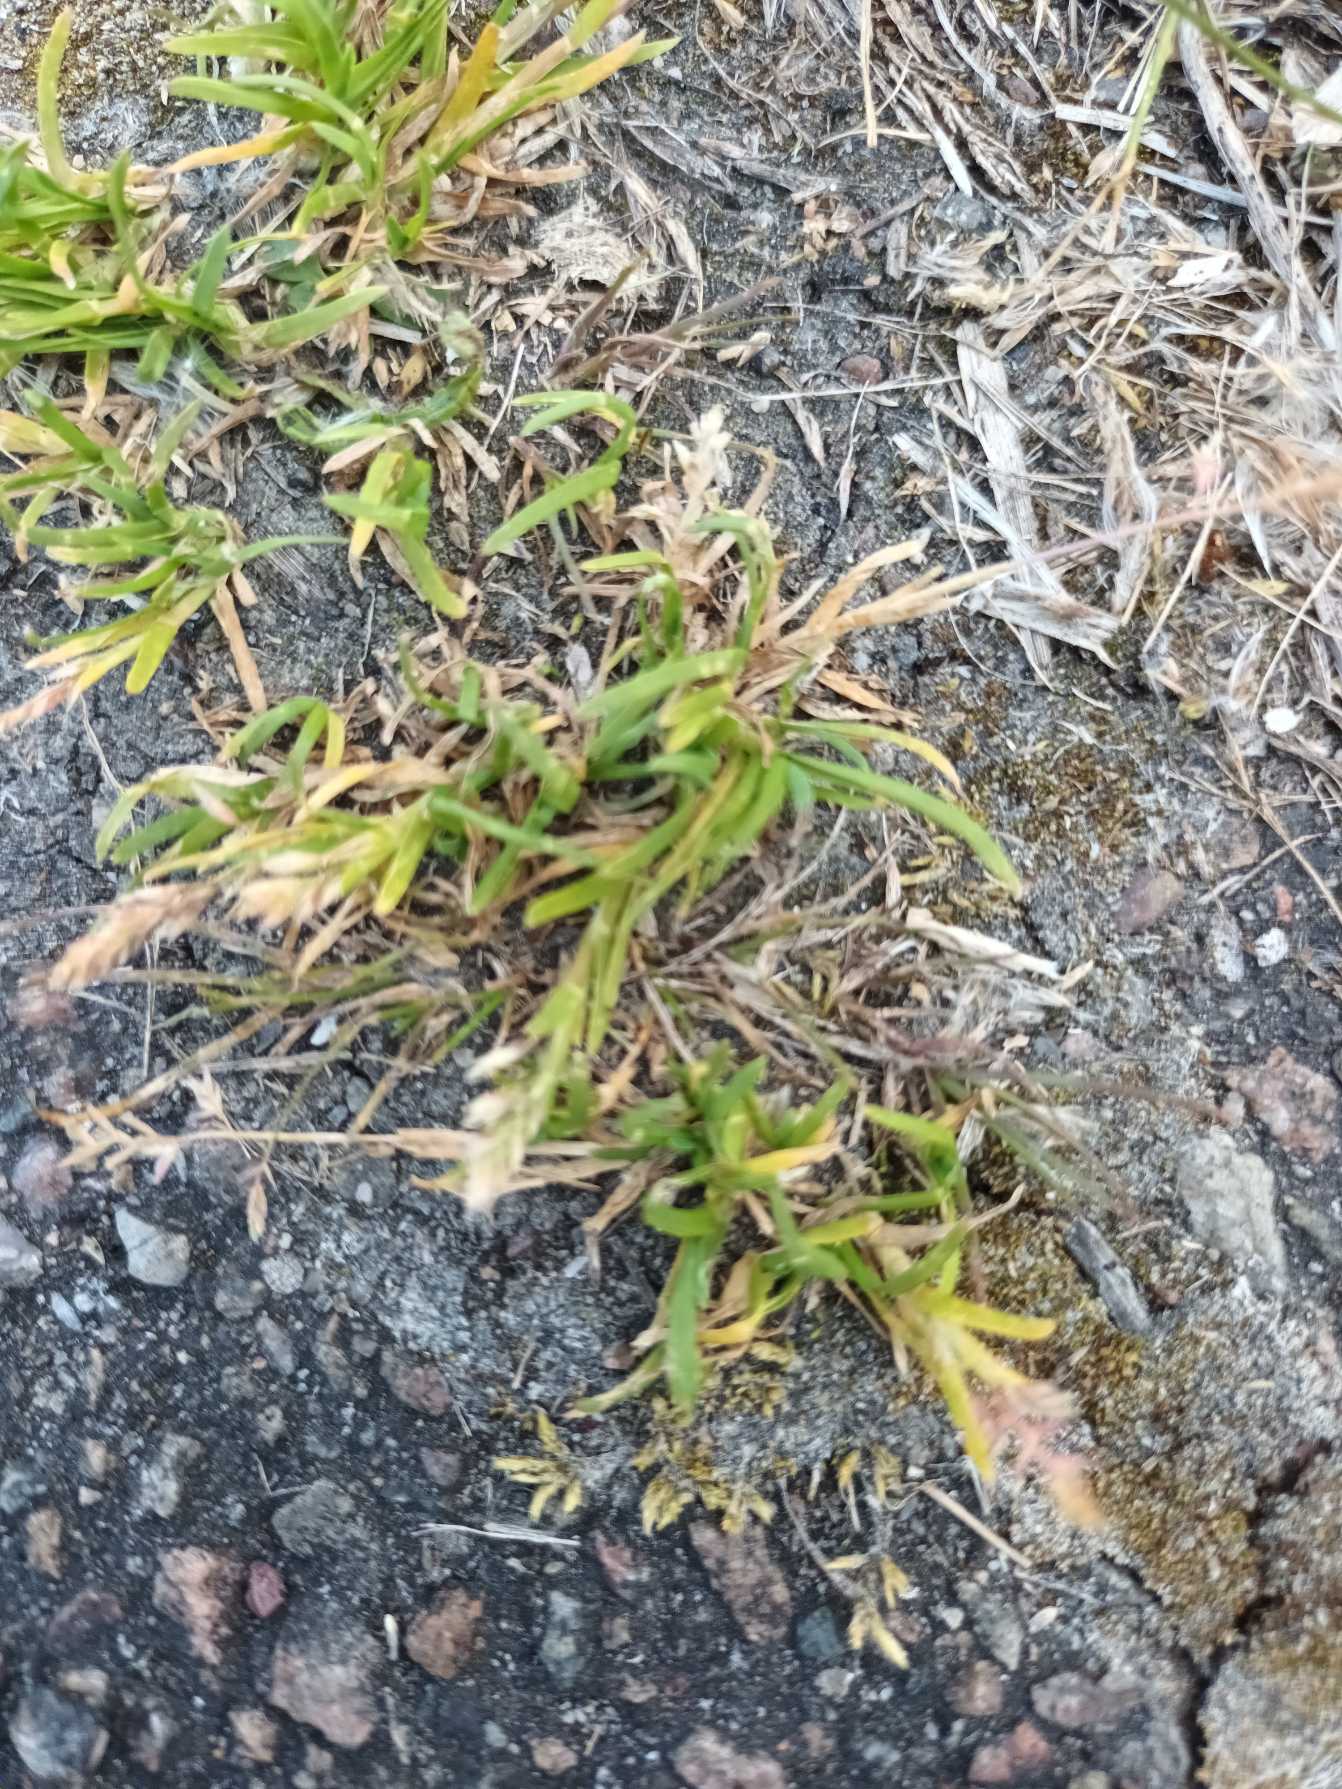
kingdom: Plantae
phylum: Tracheophyta
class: Liliopsida
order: Poales
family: Poaceae
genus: Poa
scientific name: Poa annua
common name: Enårig rapgræs
